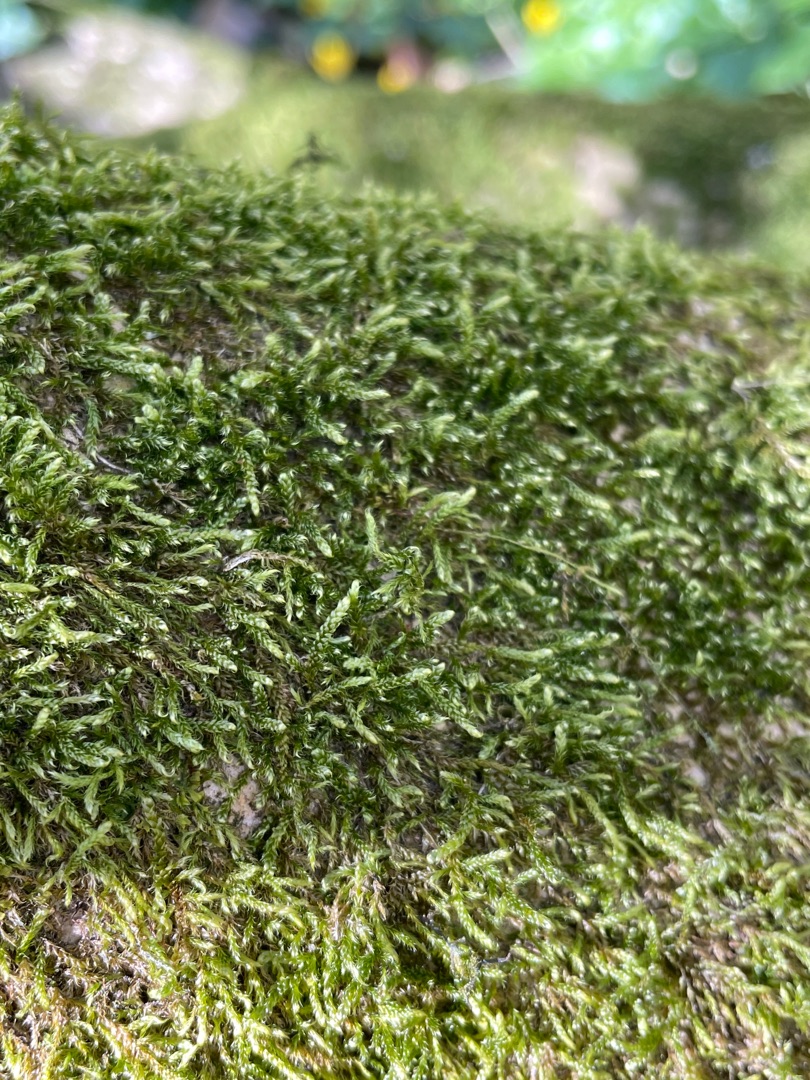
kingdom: Plantae
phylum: Bryophyta
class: Bryopsida
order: Hypnales
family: Hypnaceae
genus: Hypnum
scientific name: Hypnum cupressiforme
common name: Almindelig cypresmos
